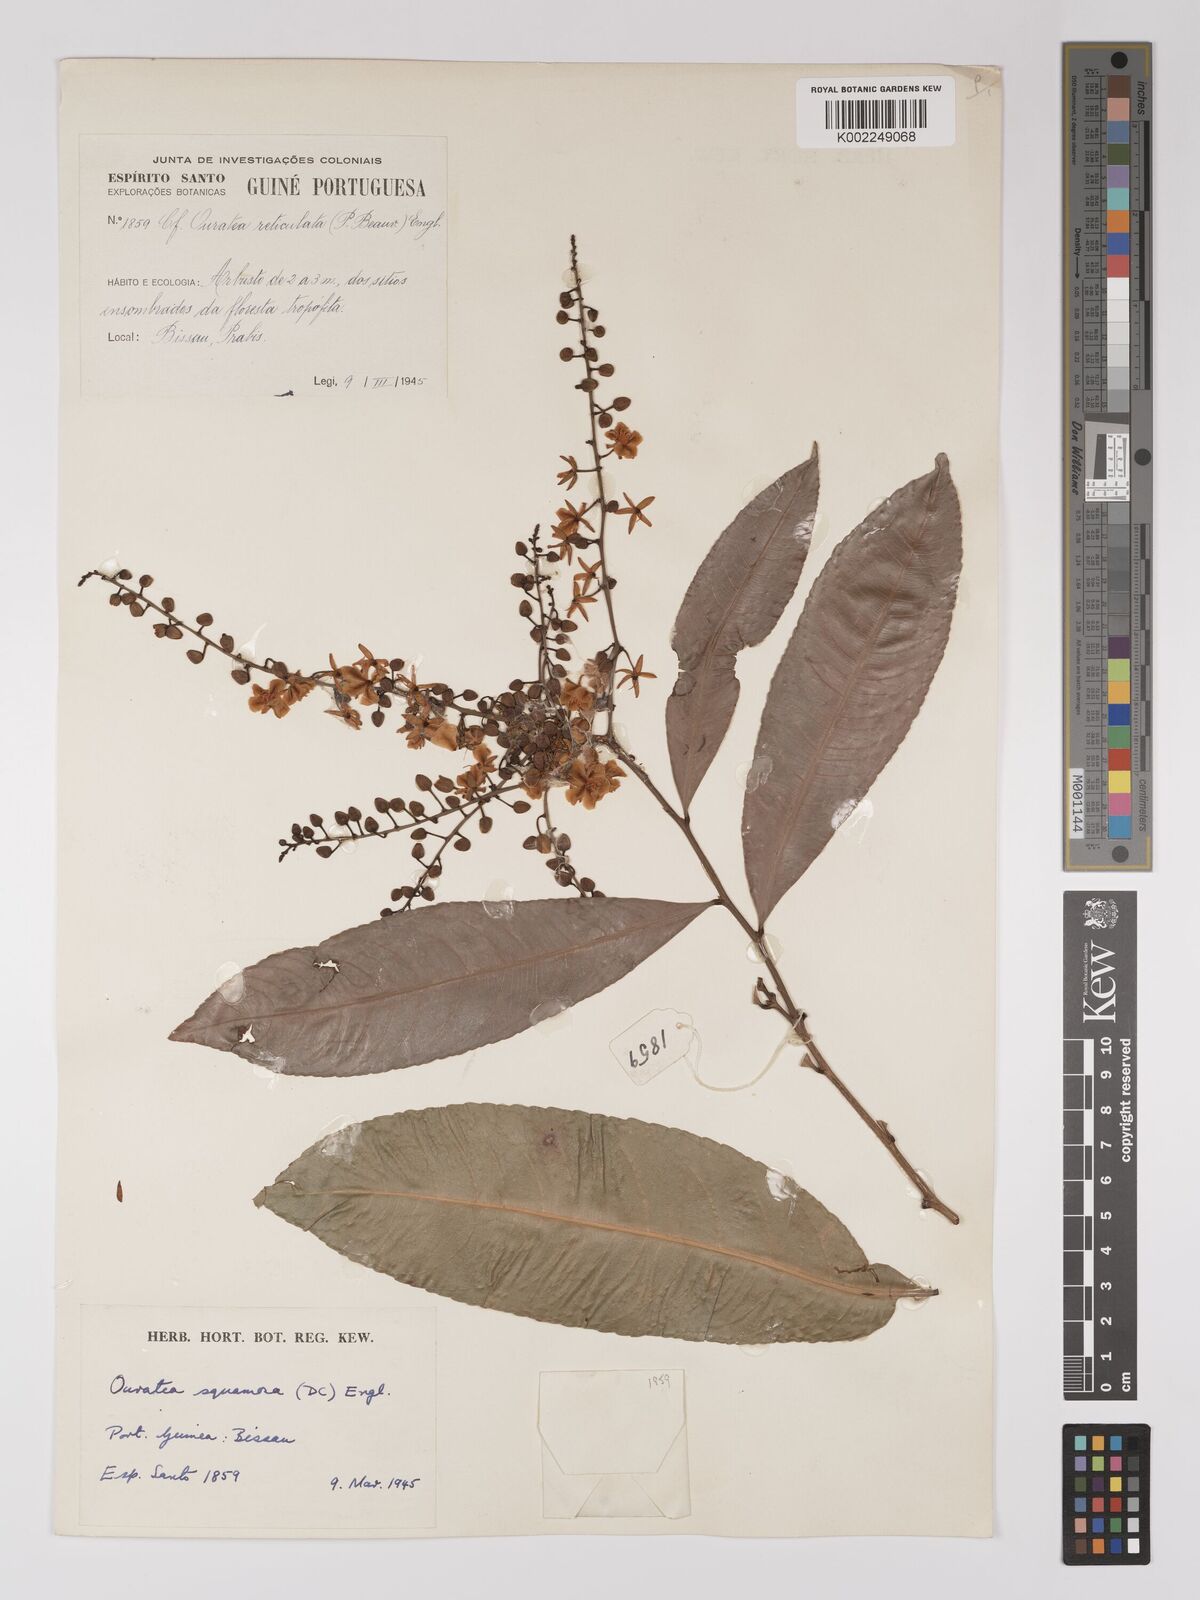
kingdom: Plantae
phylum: Tracheophyta
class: Magnoliopsida
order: Malpighiales
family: Ochnaceae
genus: Campylospermum
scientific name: Campylospermum squamosum
